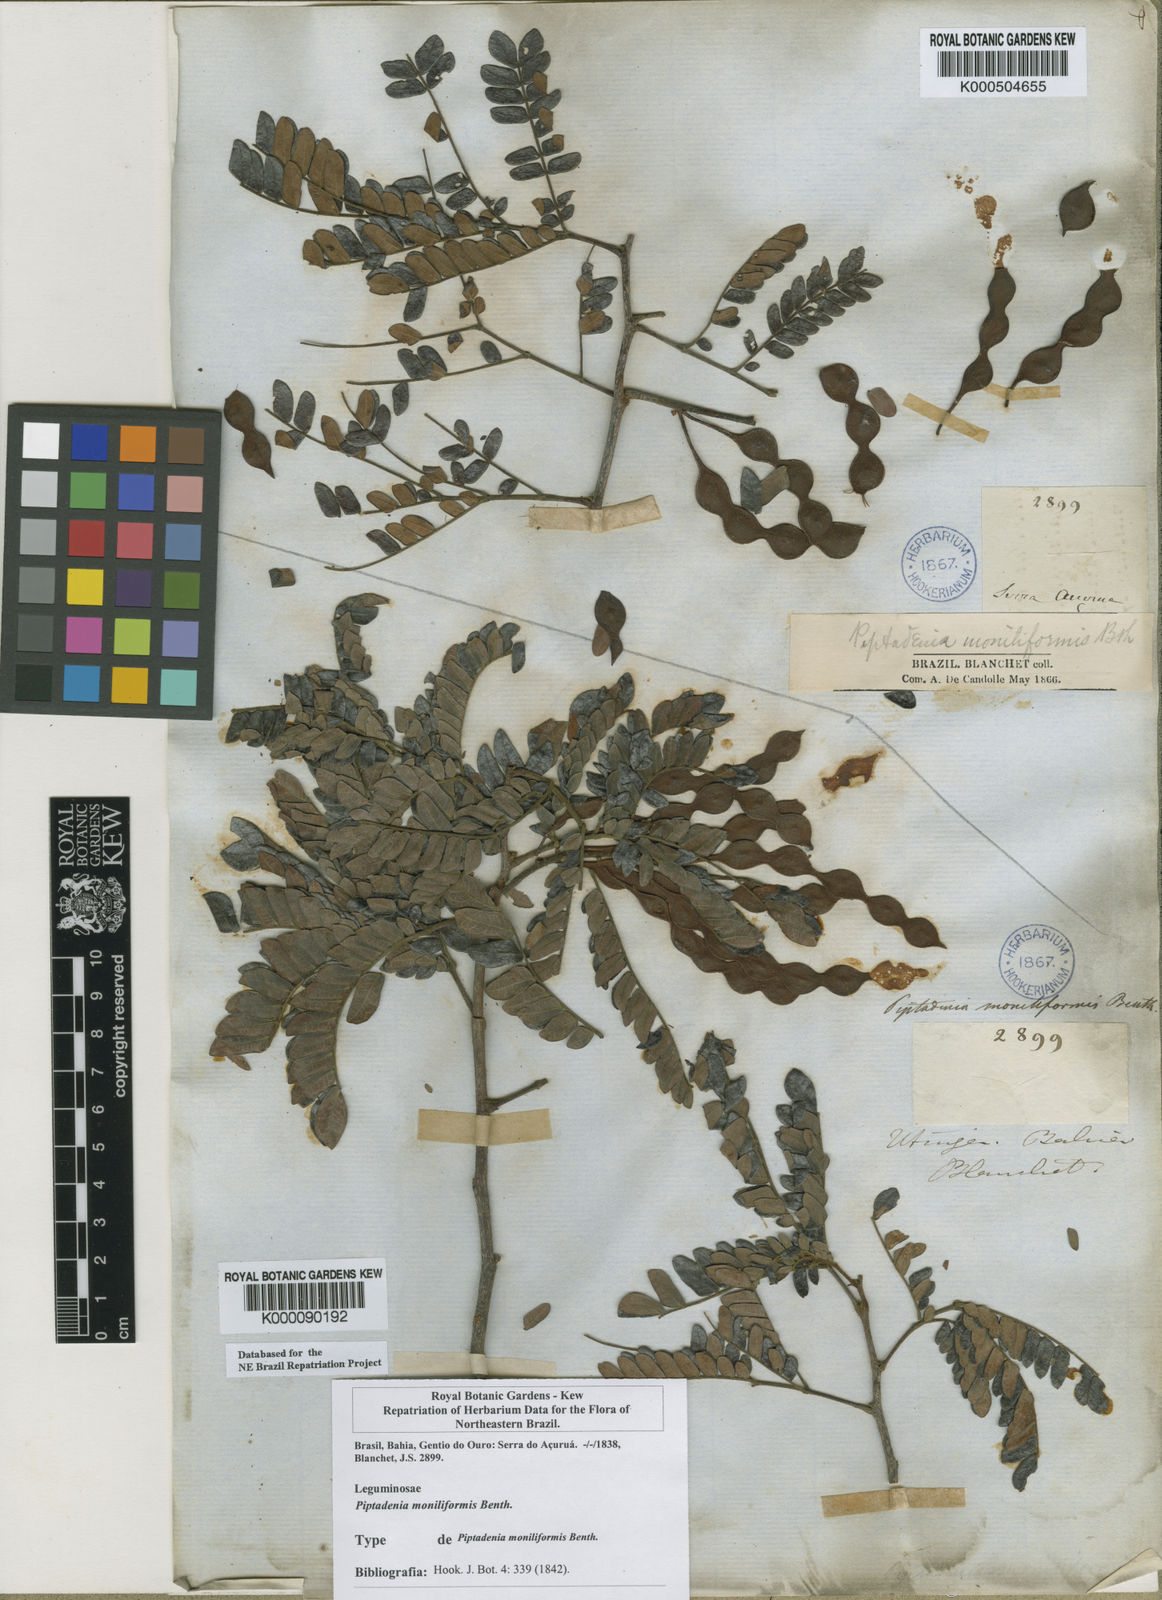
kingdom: Plantae
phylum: Tracheophyta
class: Magnoliopsida
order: Fabales
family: Fabaceae
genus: Pityrocarpa
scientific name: Pityrocarpa moniliformis
